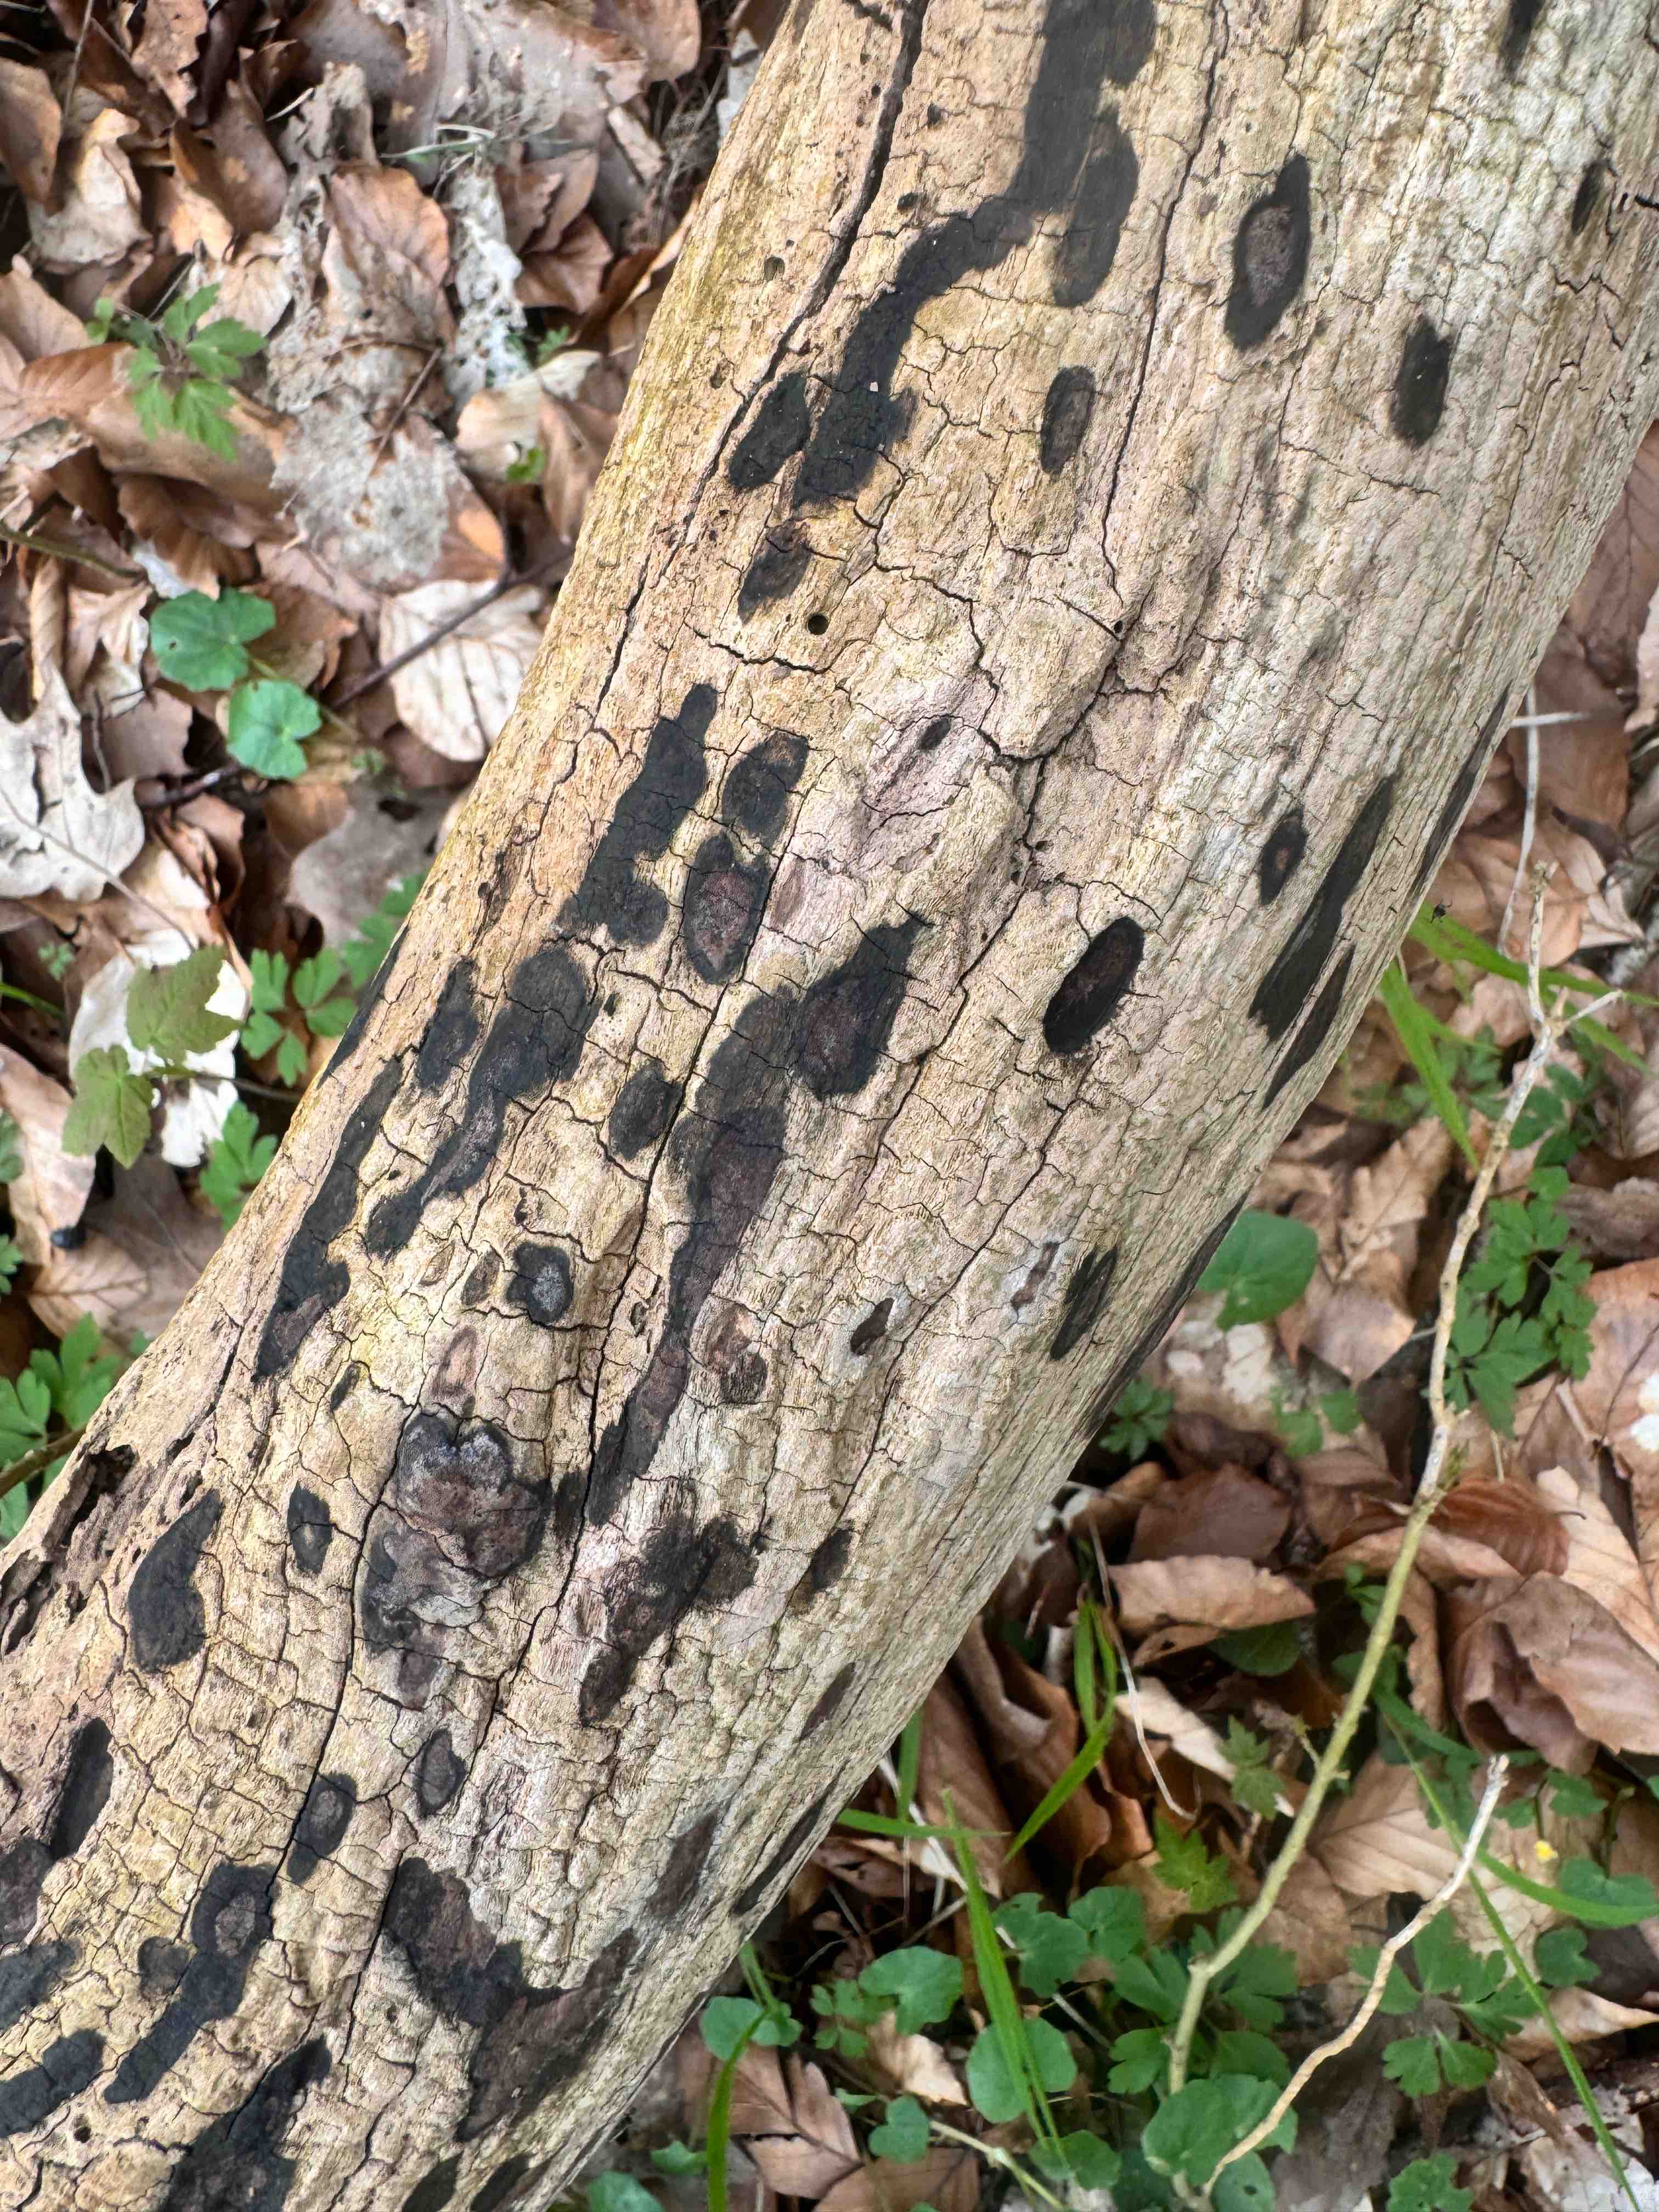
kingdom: Fungi
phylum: Ascomycota
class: Sordariomycetes
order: Xylariales
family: Hypoxylaceae
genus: Hypoxylon
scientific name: Hypoxylon petriniae
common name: nedsænket kulbær
